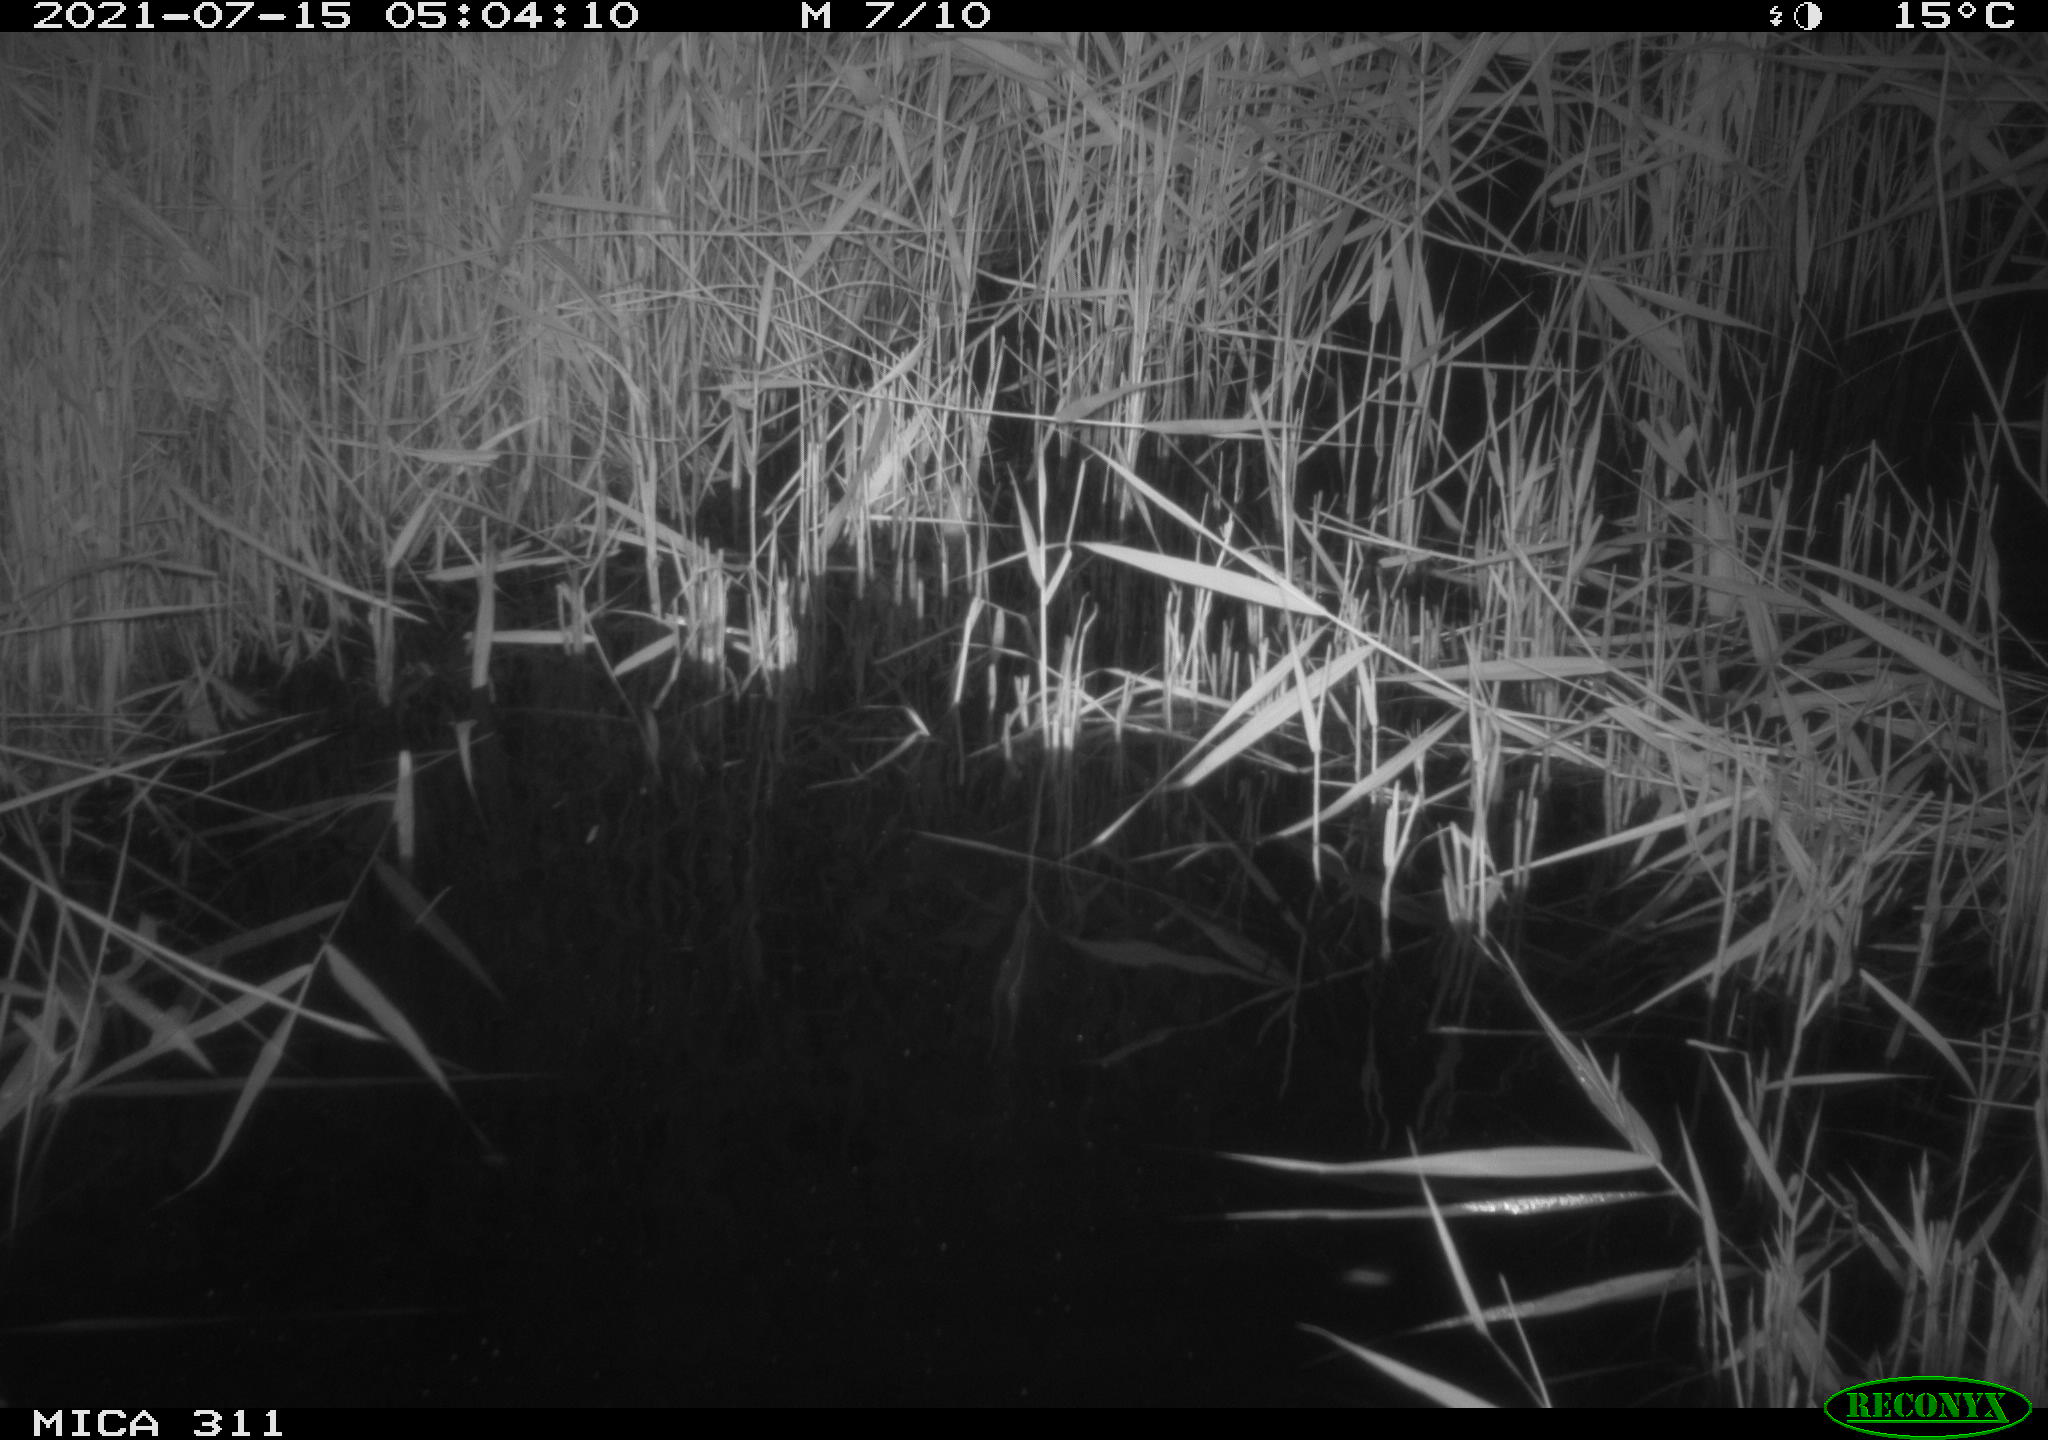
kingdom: Animalia
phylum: Chordata
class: Mammalia
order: Rodentia
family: Muridae
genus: Rattus
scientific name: Rattus norvegicus
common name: Brown rat
